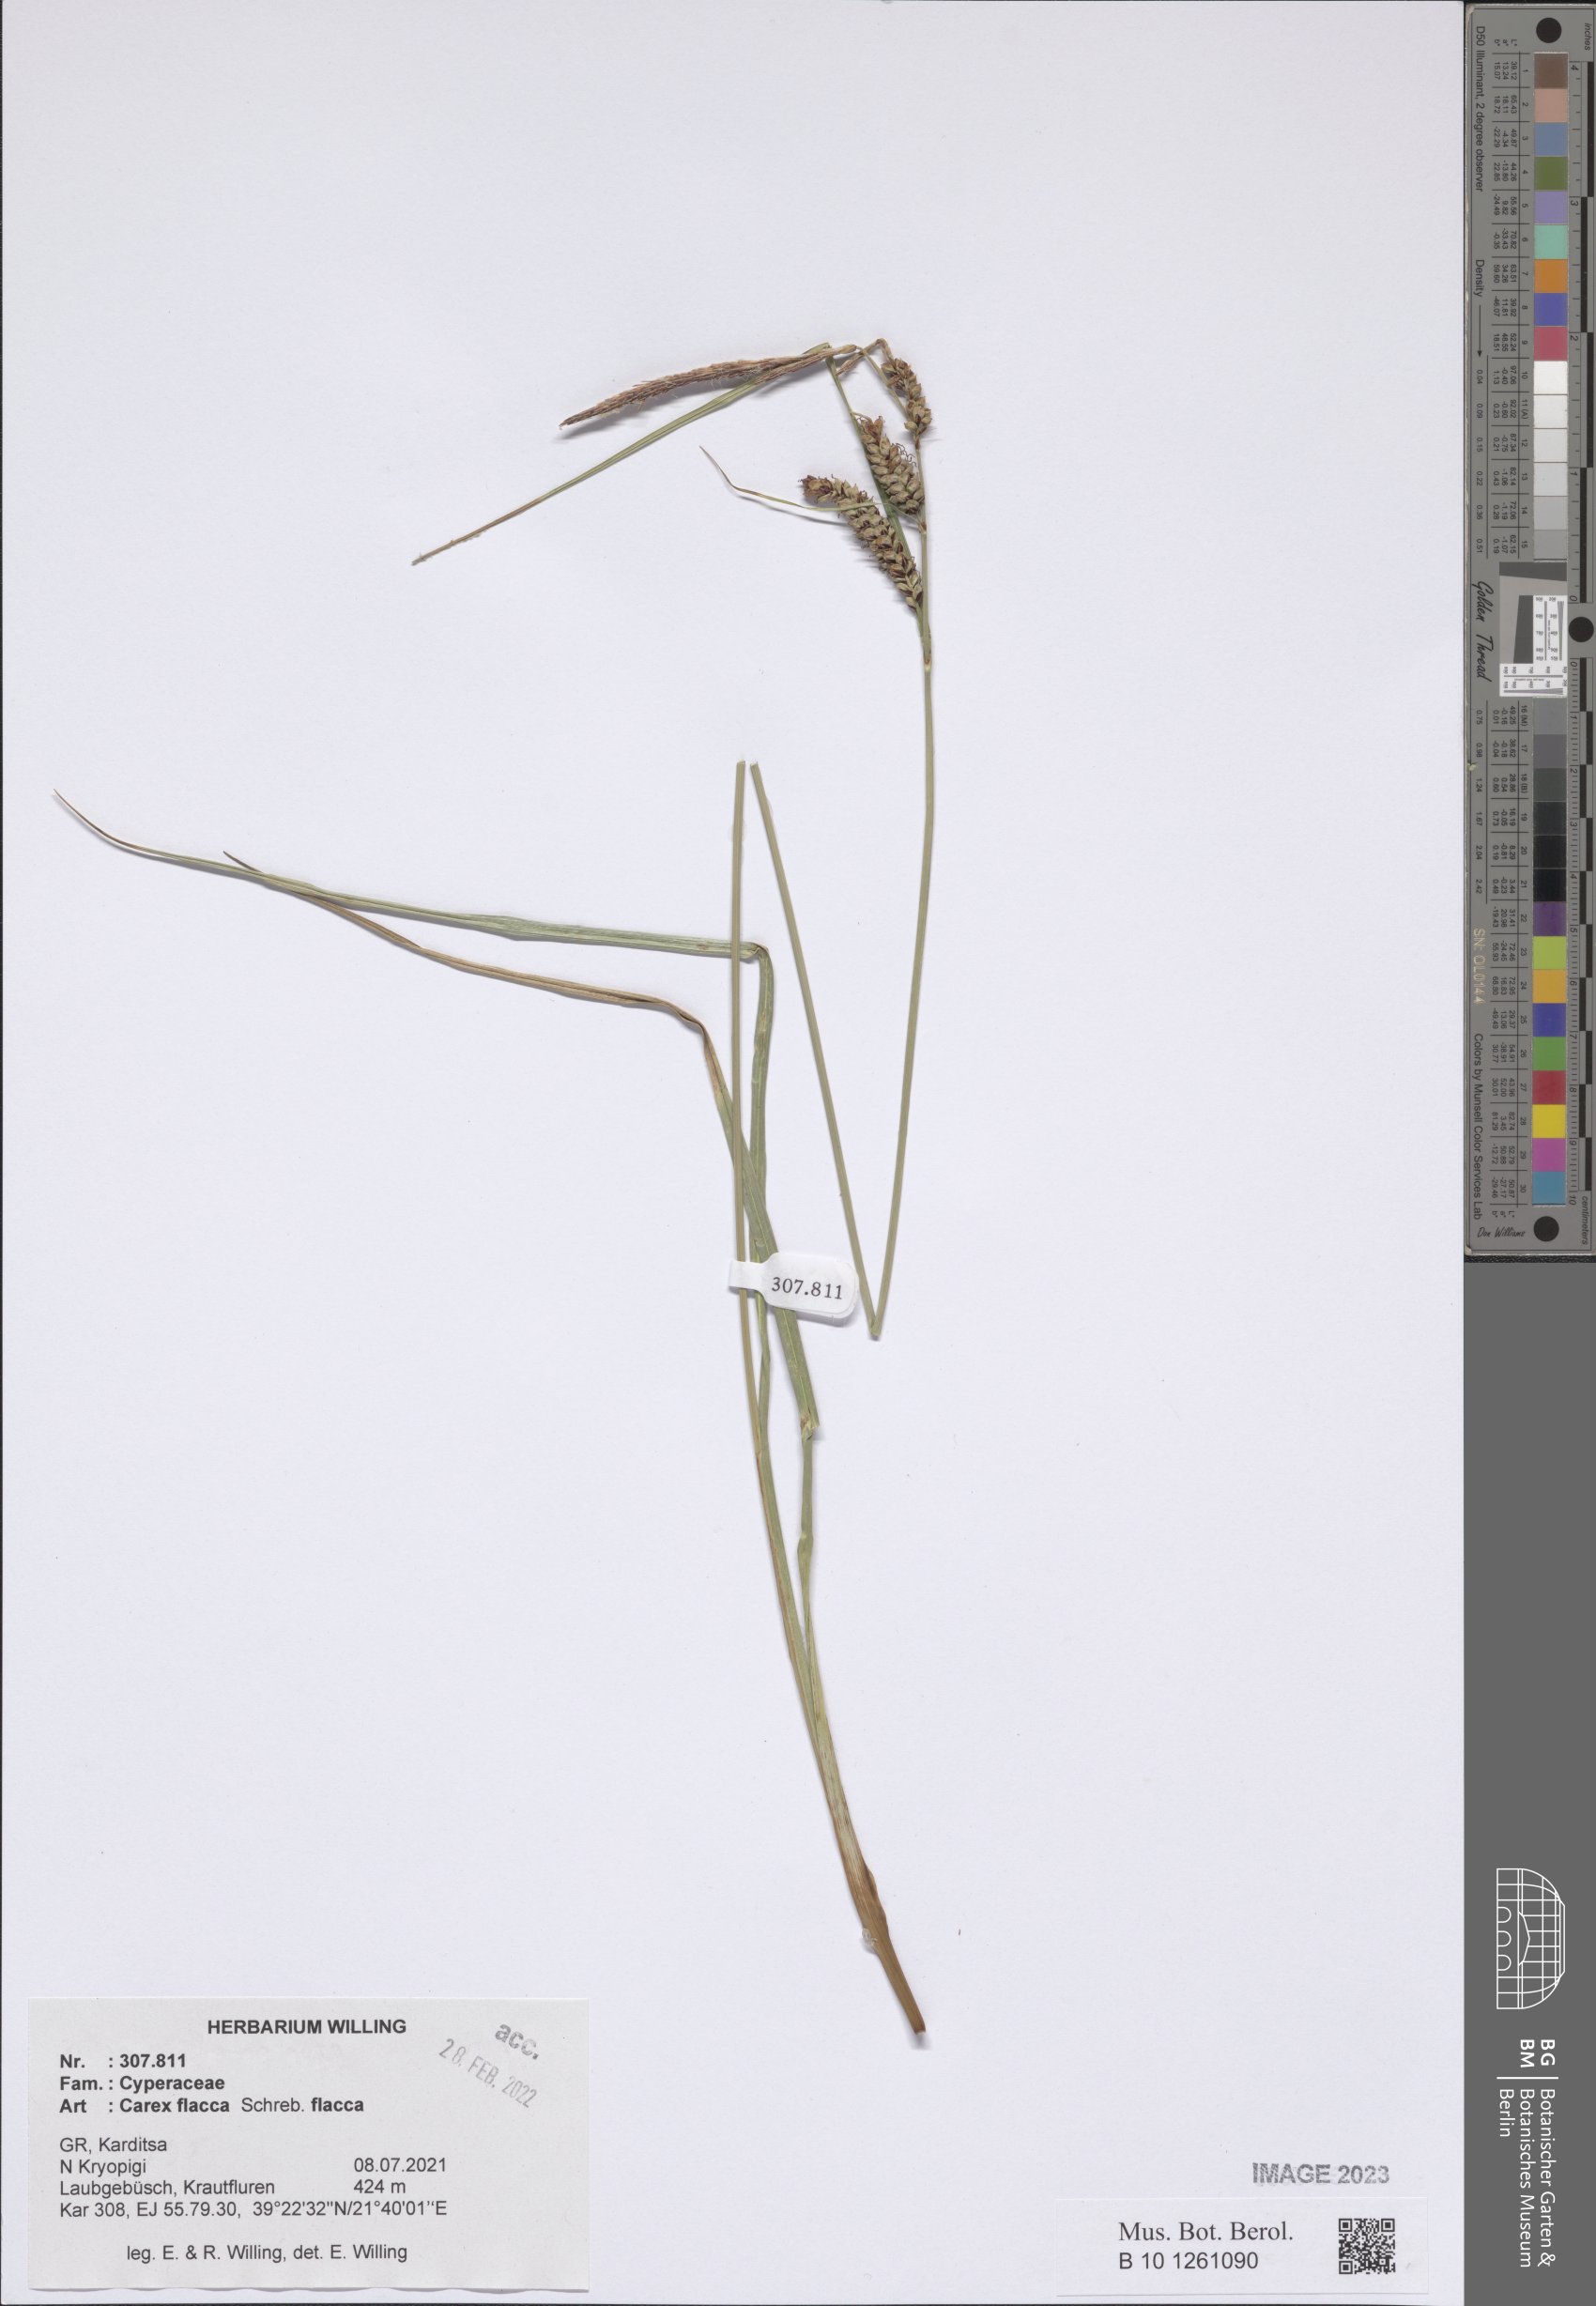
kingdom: Plantae
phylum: Tracheophyta
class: Liliopsida
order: Poales
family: Cyperaceae
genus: Carex
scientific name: Carex distans
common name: Distant sedge
